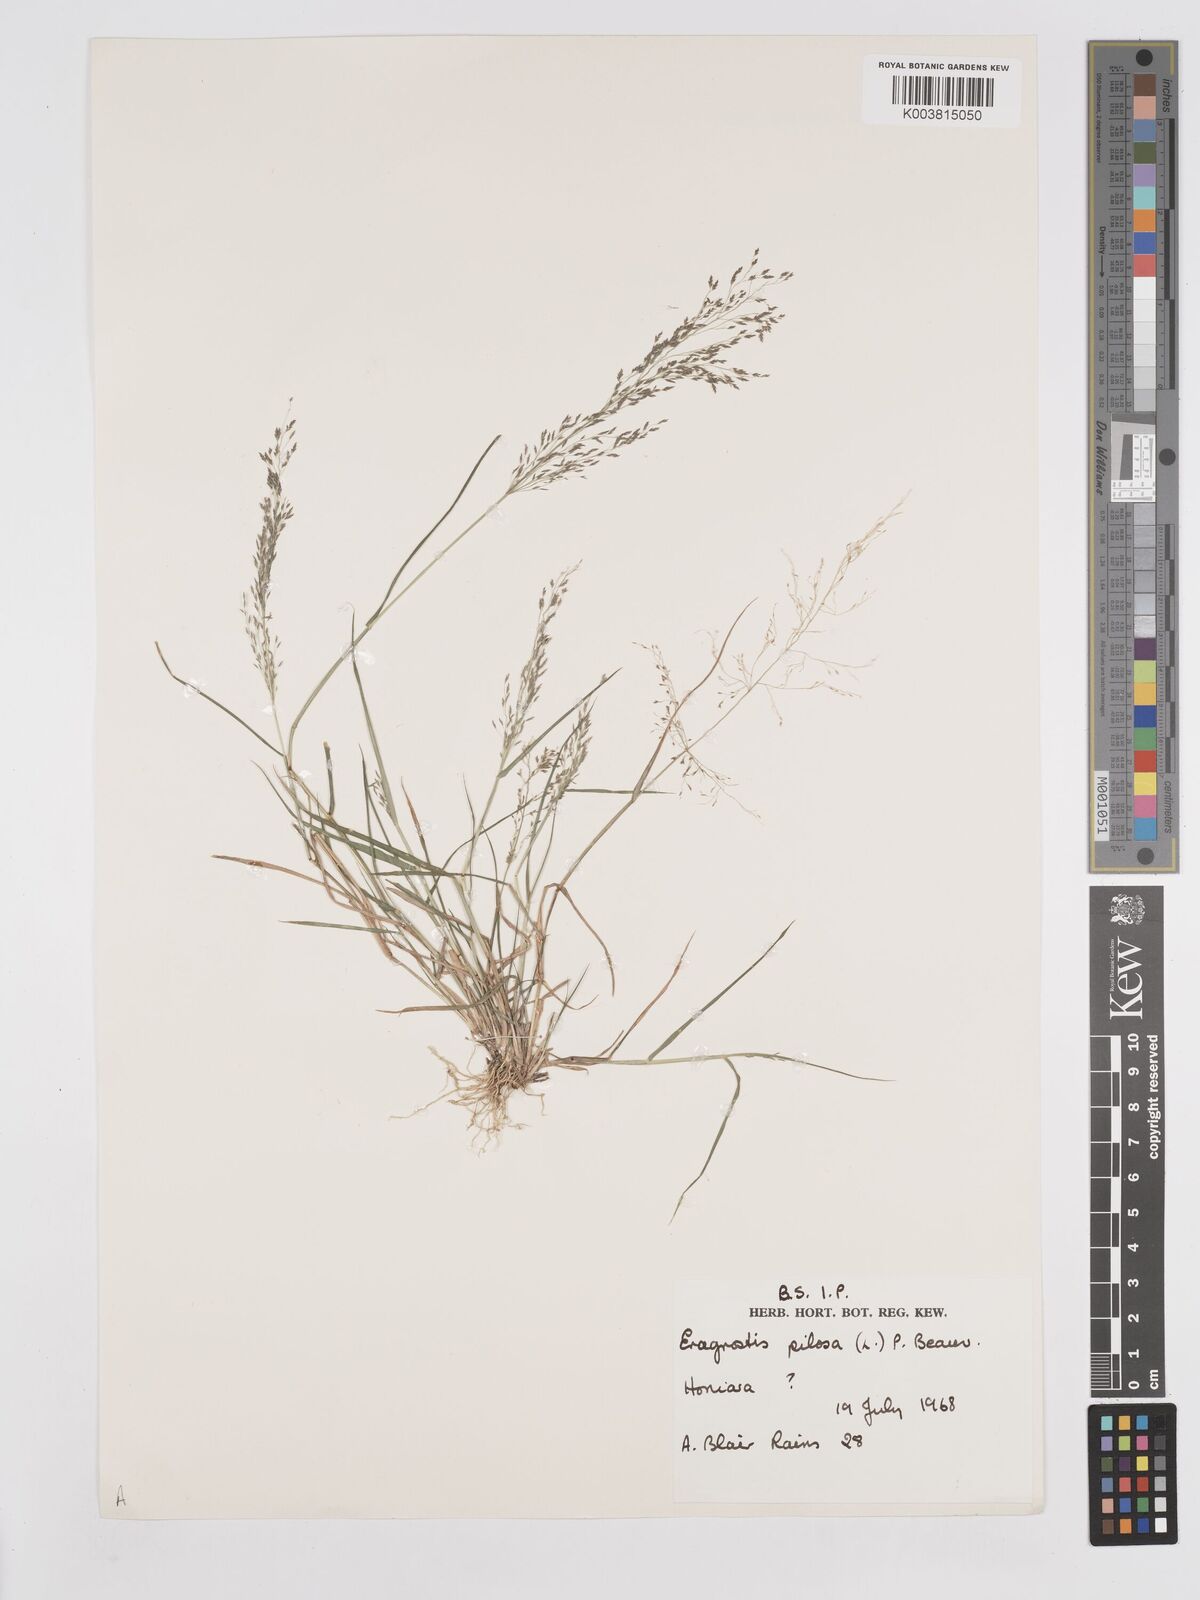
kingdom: Plantae
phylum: Tracheophyta
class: Liliopsida
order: Poales
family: Poaceae
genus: Eragrostis
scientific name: Eragrostis pilosa
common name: Indian lovegrass
